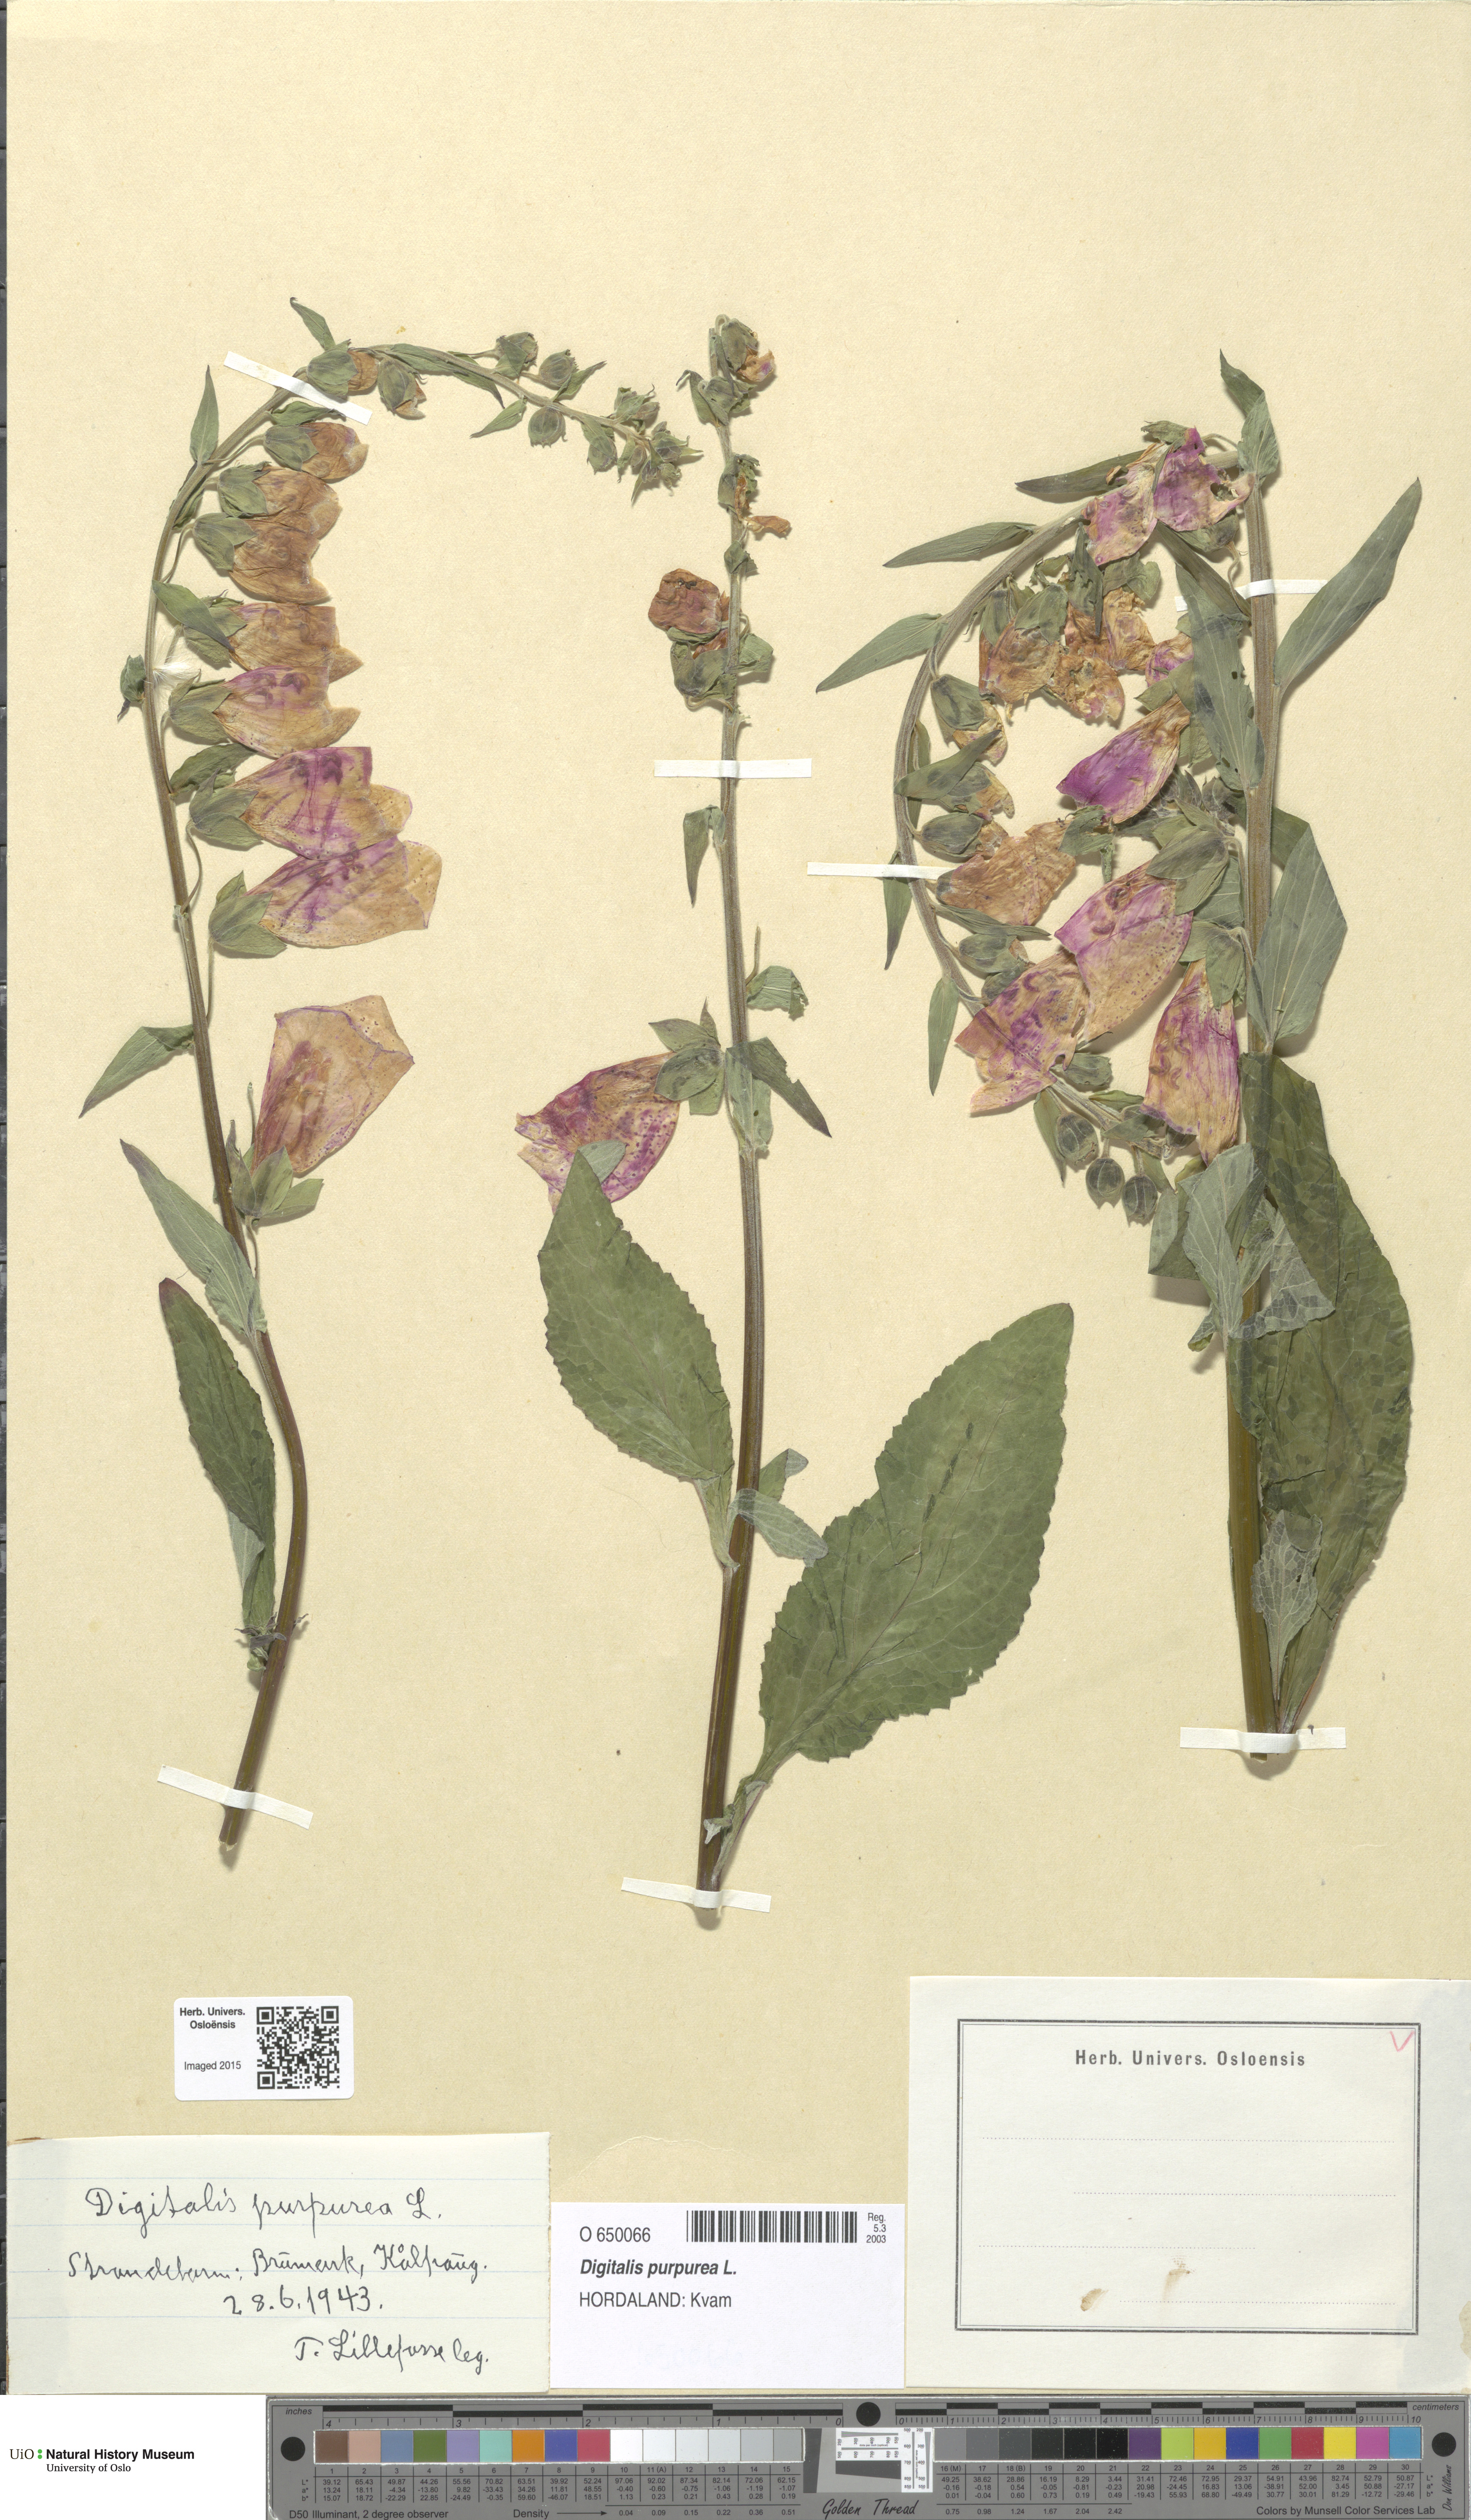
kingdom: Plantae
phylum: Tracheophyta
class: Magnoliopsida
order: Lamiales
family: Plantaginaceae
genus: Digitalis
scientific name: Digitalis purpurea
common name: Foxglove
